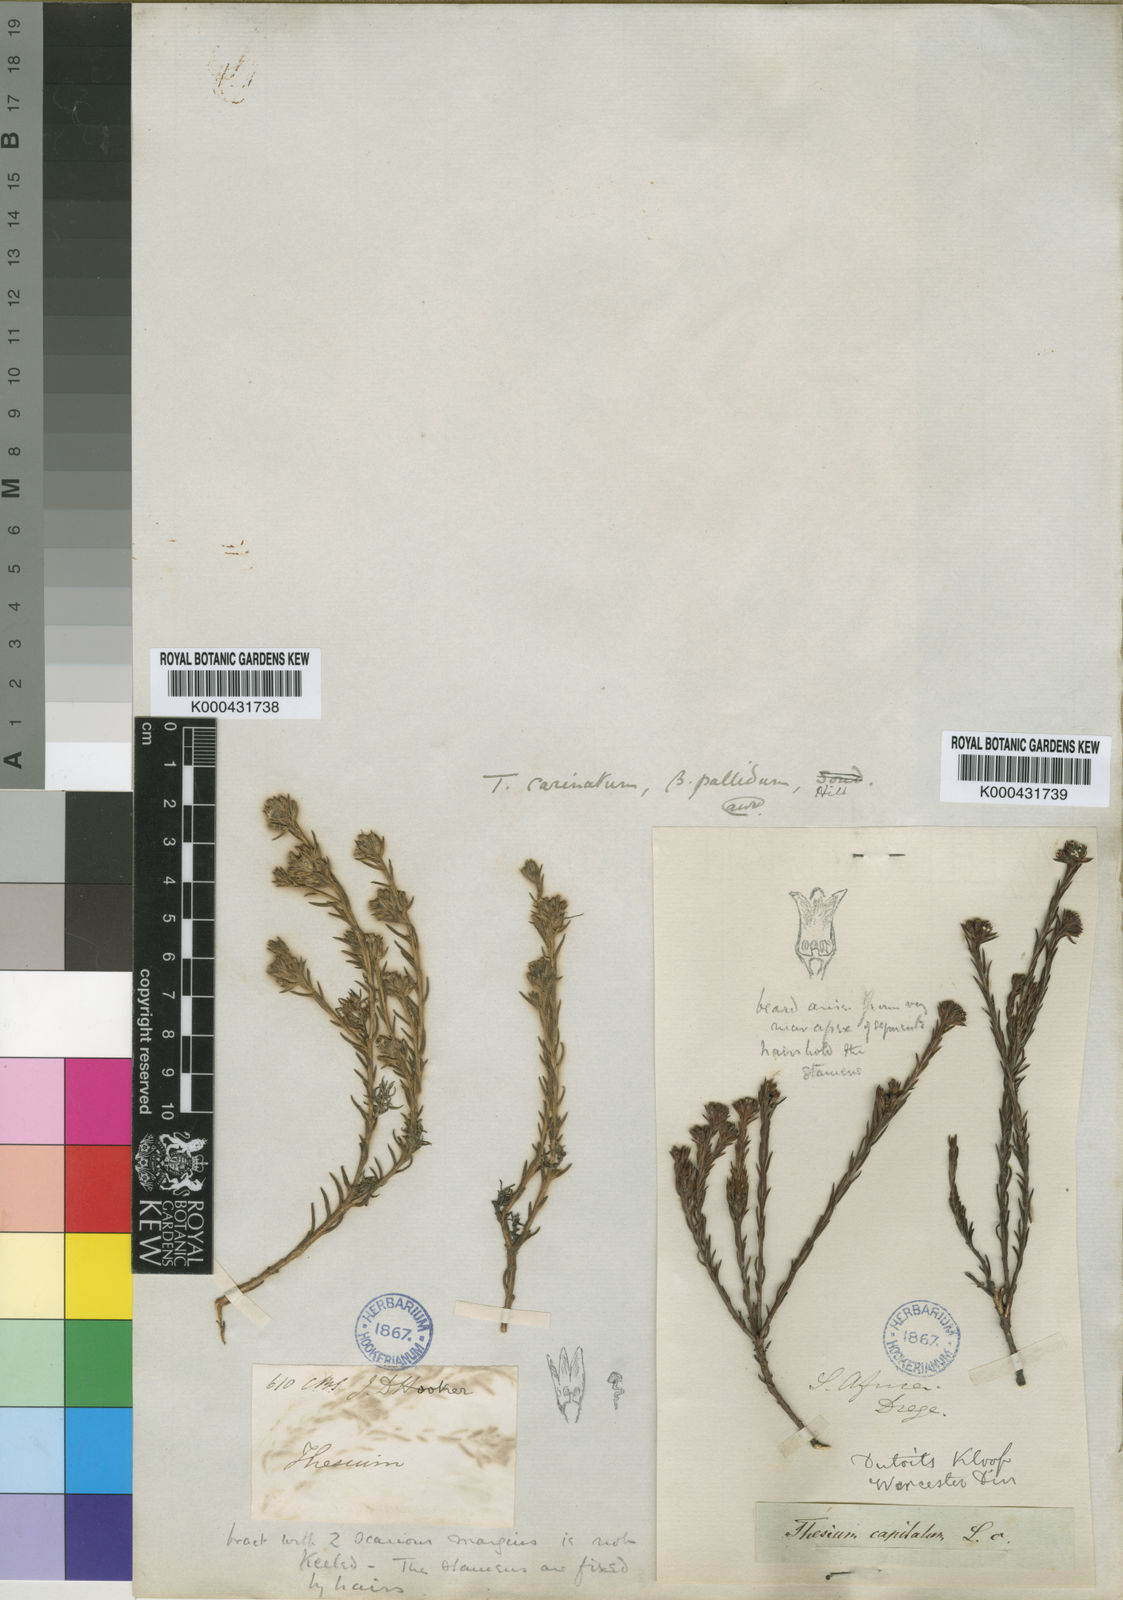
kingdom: Plantae
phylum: Tracheophyta
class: Magnoliopsida
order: Santalales
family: Thesiaceae
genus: Thesium
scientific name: Thesium carinatum
